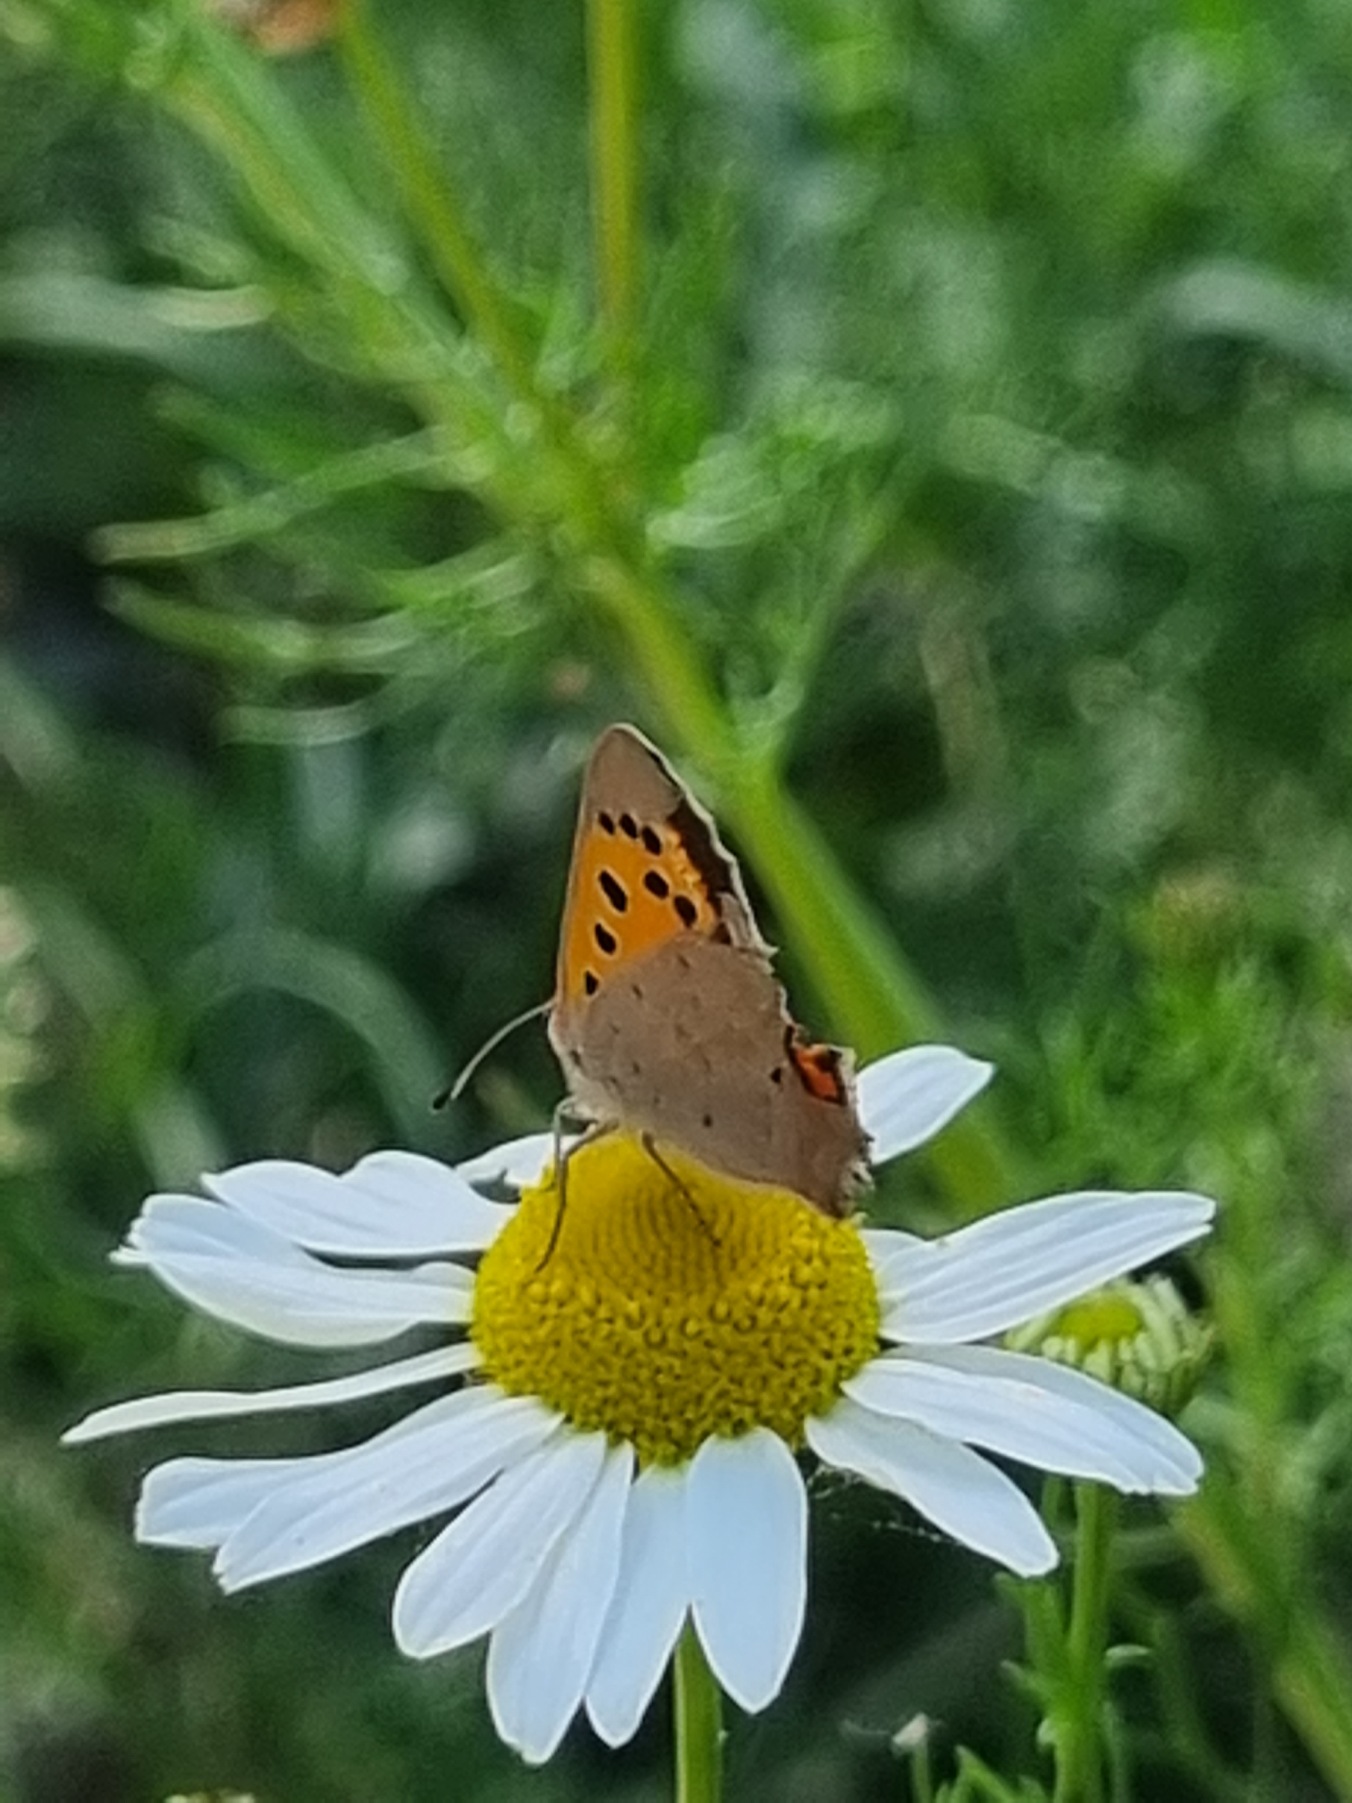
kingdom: Animalia
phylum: Arthropoda
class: Insecta
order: Lepidoptera
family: Lycaenidae
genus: Lycaena
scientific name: Lycaena phlaeas
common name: Lille ildfugl
